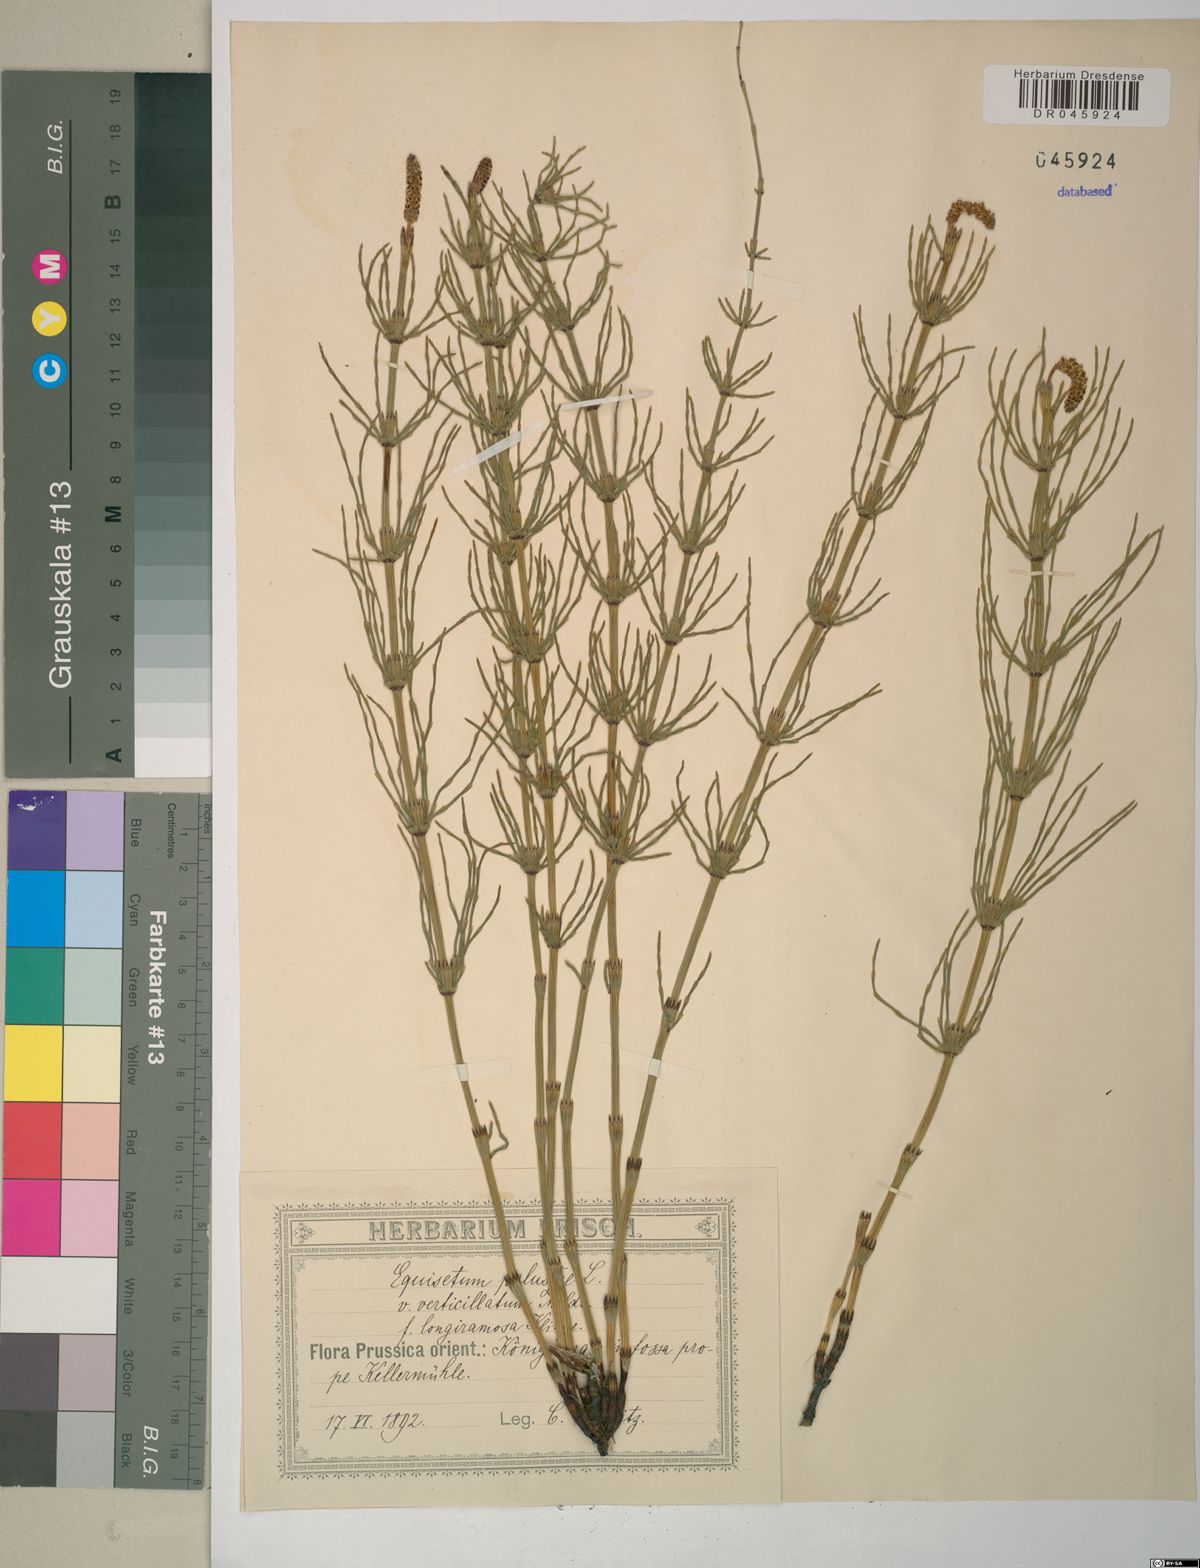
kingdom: Plantae
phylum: Tracheophyta
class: Polypodiopsida
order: Equisetales
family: Equisetaceae
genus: Equisetum
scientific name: Equisetum palustre
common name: Marsh horsetail
